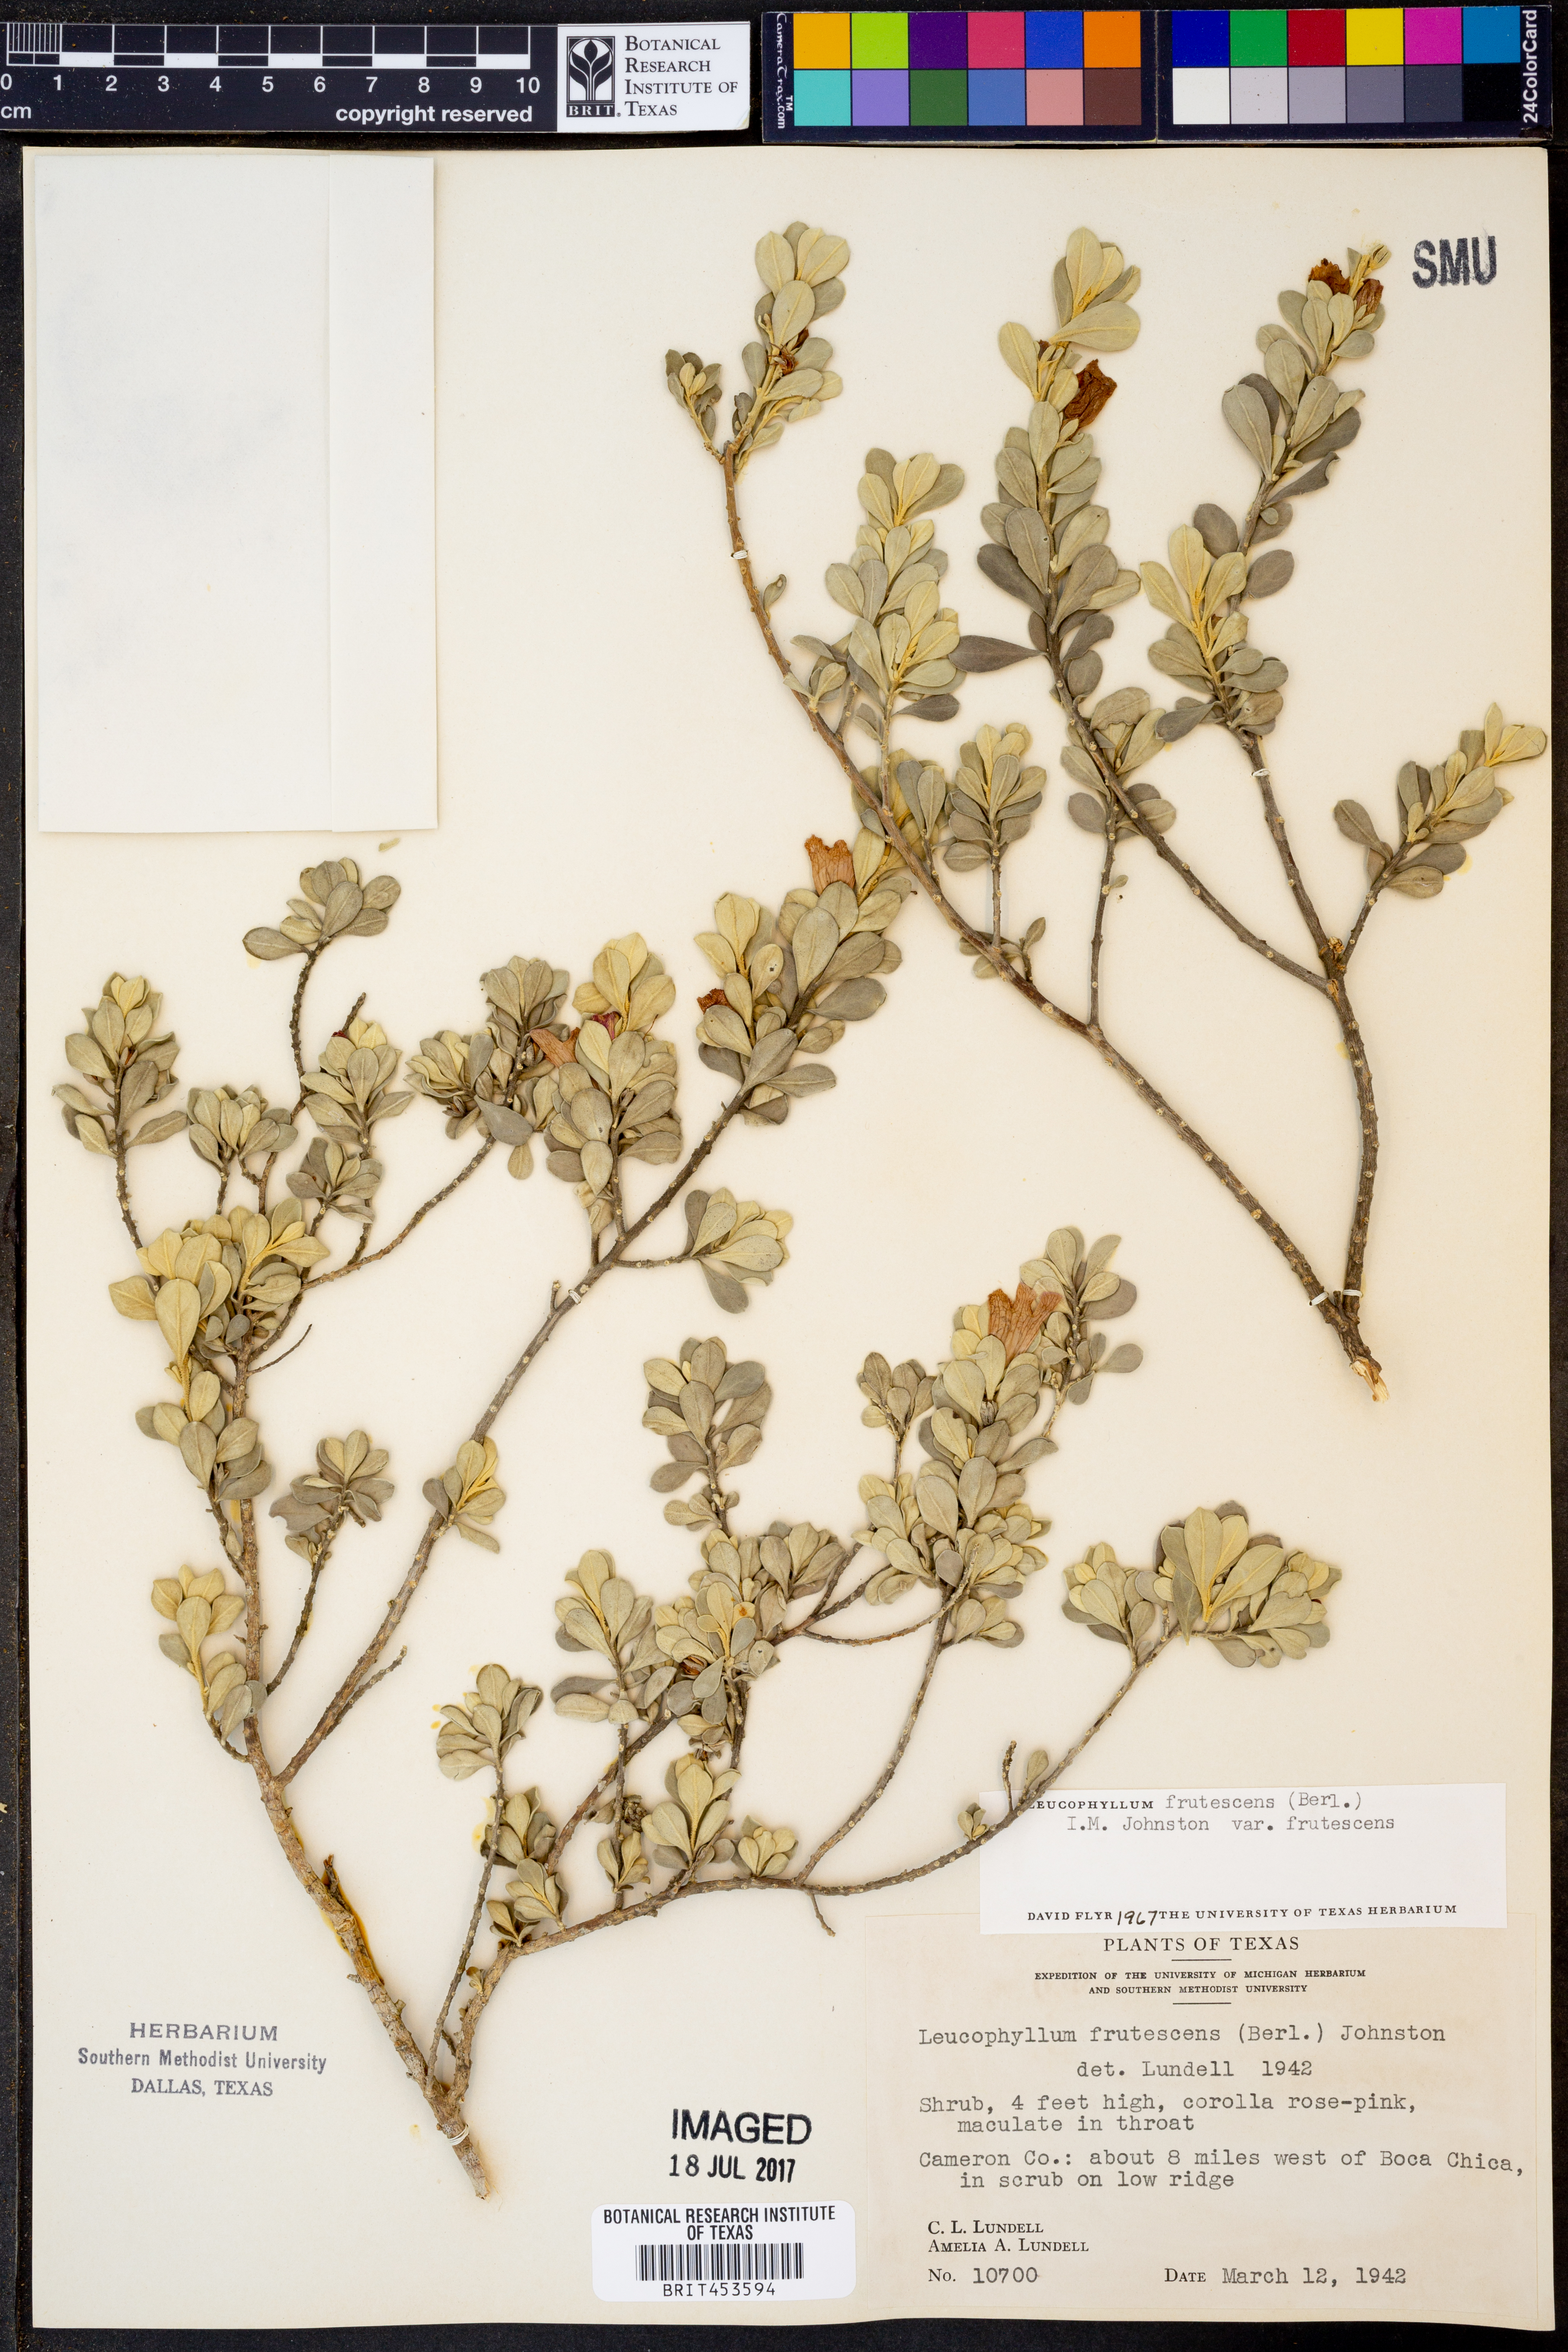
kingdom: Plantae
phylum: Tracheophyta
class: Magnoliopsida
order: Lamiales
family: Scrophulariaceae
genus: Leucophyllum
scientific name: Leucophyllum frutescens
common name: Texas silverleaf
